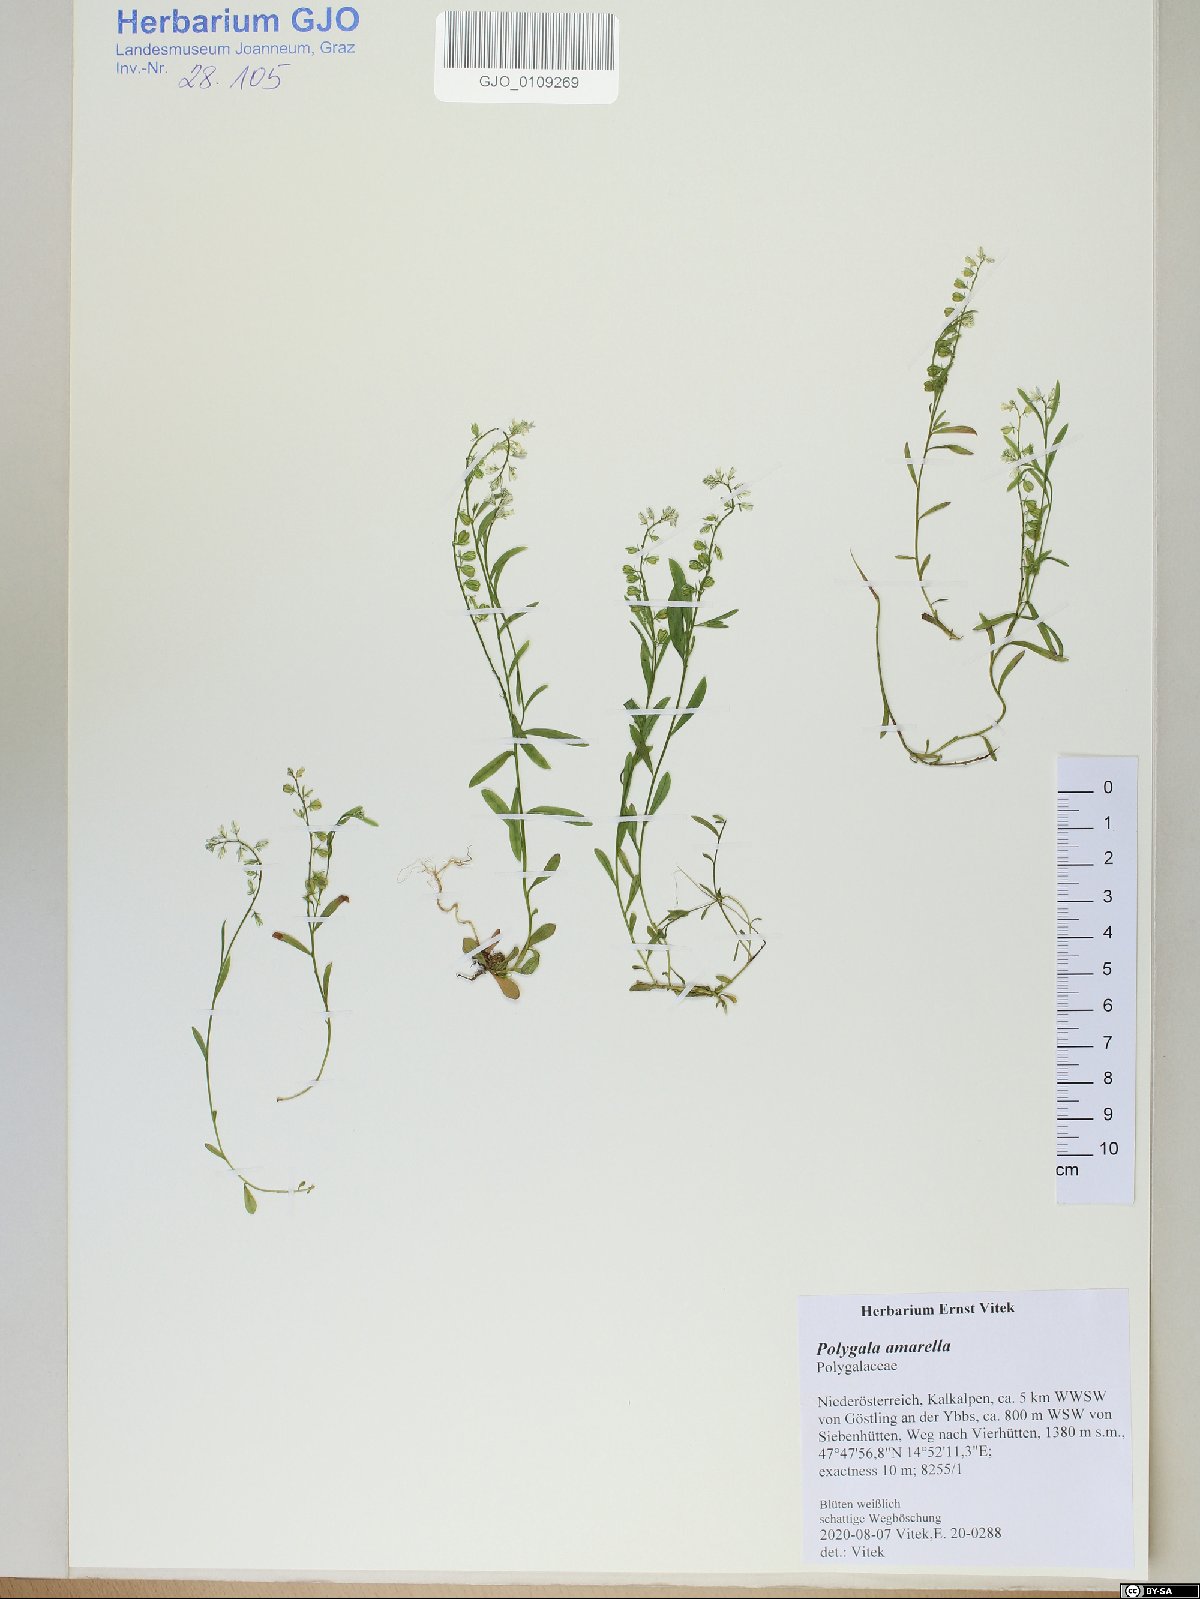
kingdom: Plantae
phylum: Tracheophyta
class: Magnoliopsida
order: Fabales
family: Polygalaceae
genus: Polygala
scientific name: Polygala amarella
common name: Dwarf milkwort
